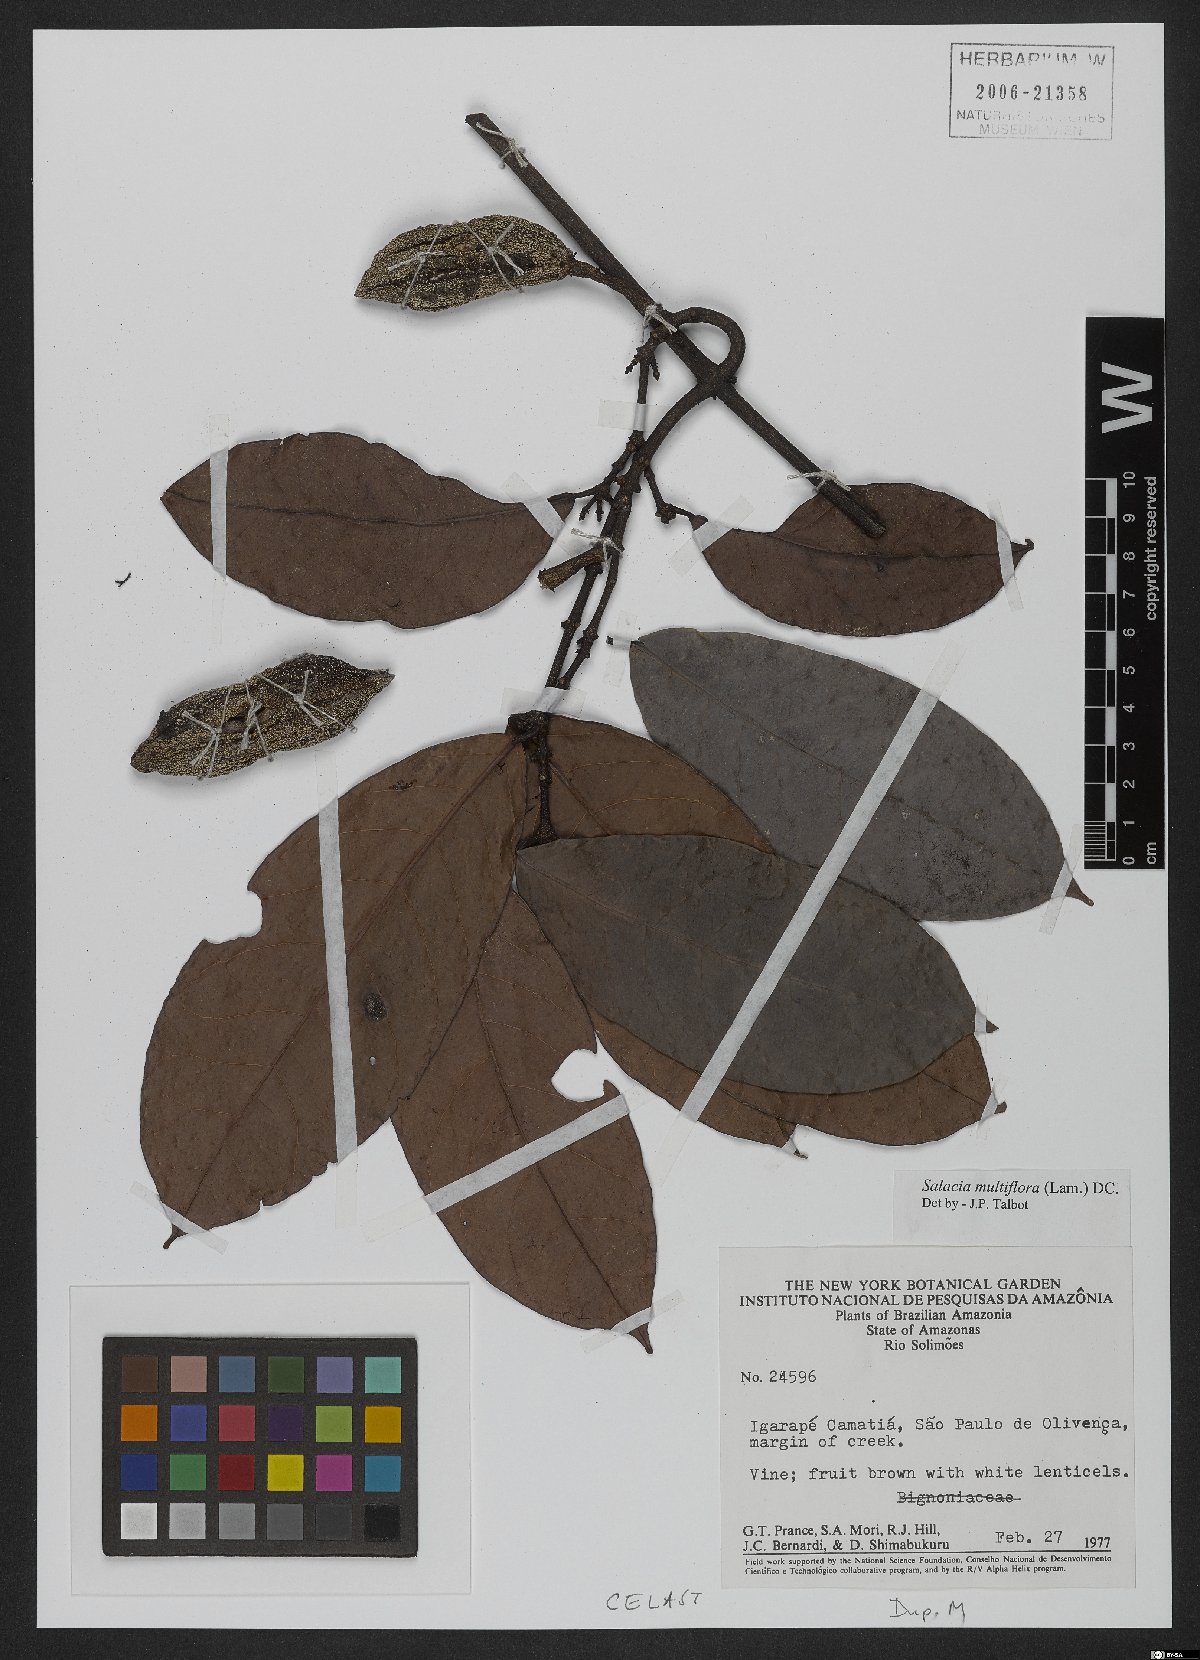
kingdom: Plantae
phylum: Tracheophyta
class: Magnoliopsida
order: Celastrales
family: Celastraceae
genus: Salacia
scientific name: Salacia multiflora
